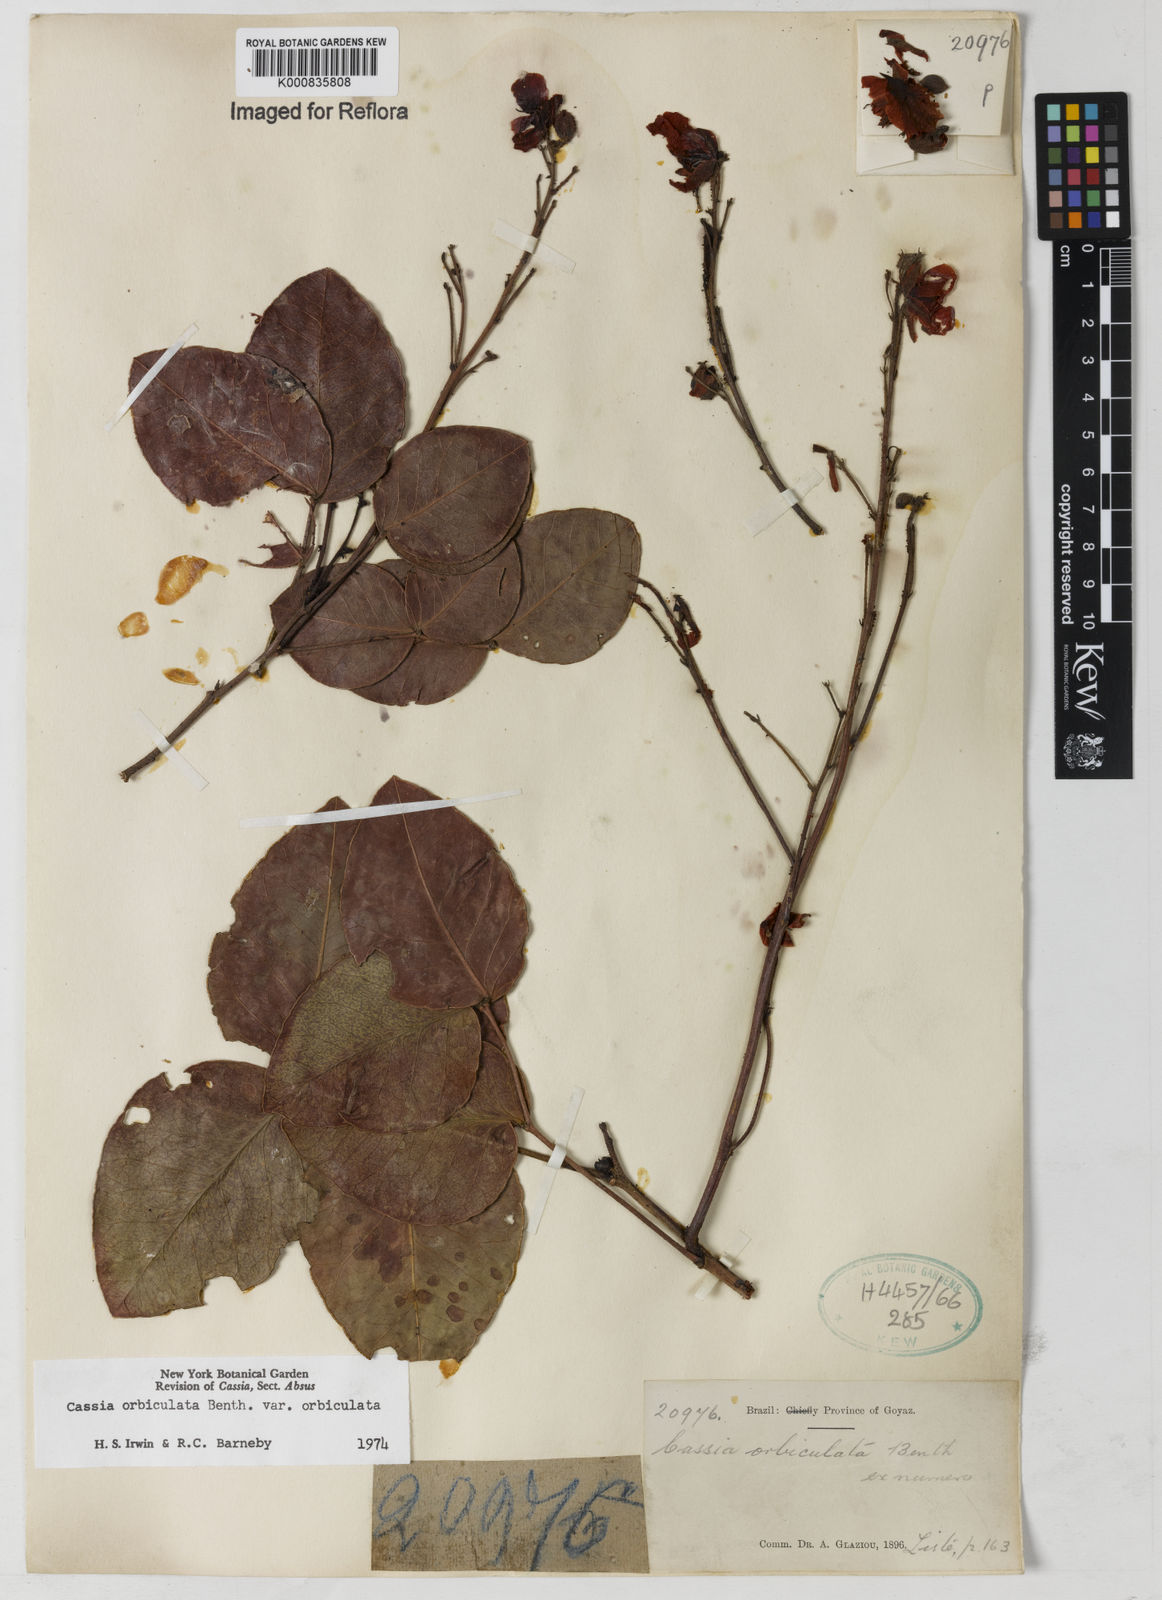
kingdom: Plantae
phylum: Tracheophyta
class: Magnoliopsida
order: Fabales
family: Fabaceae
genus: Chamaecrista
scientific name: Chamaecrista orbiculata
